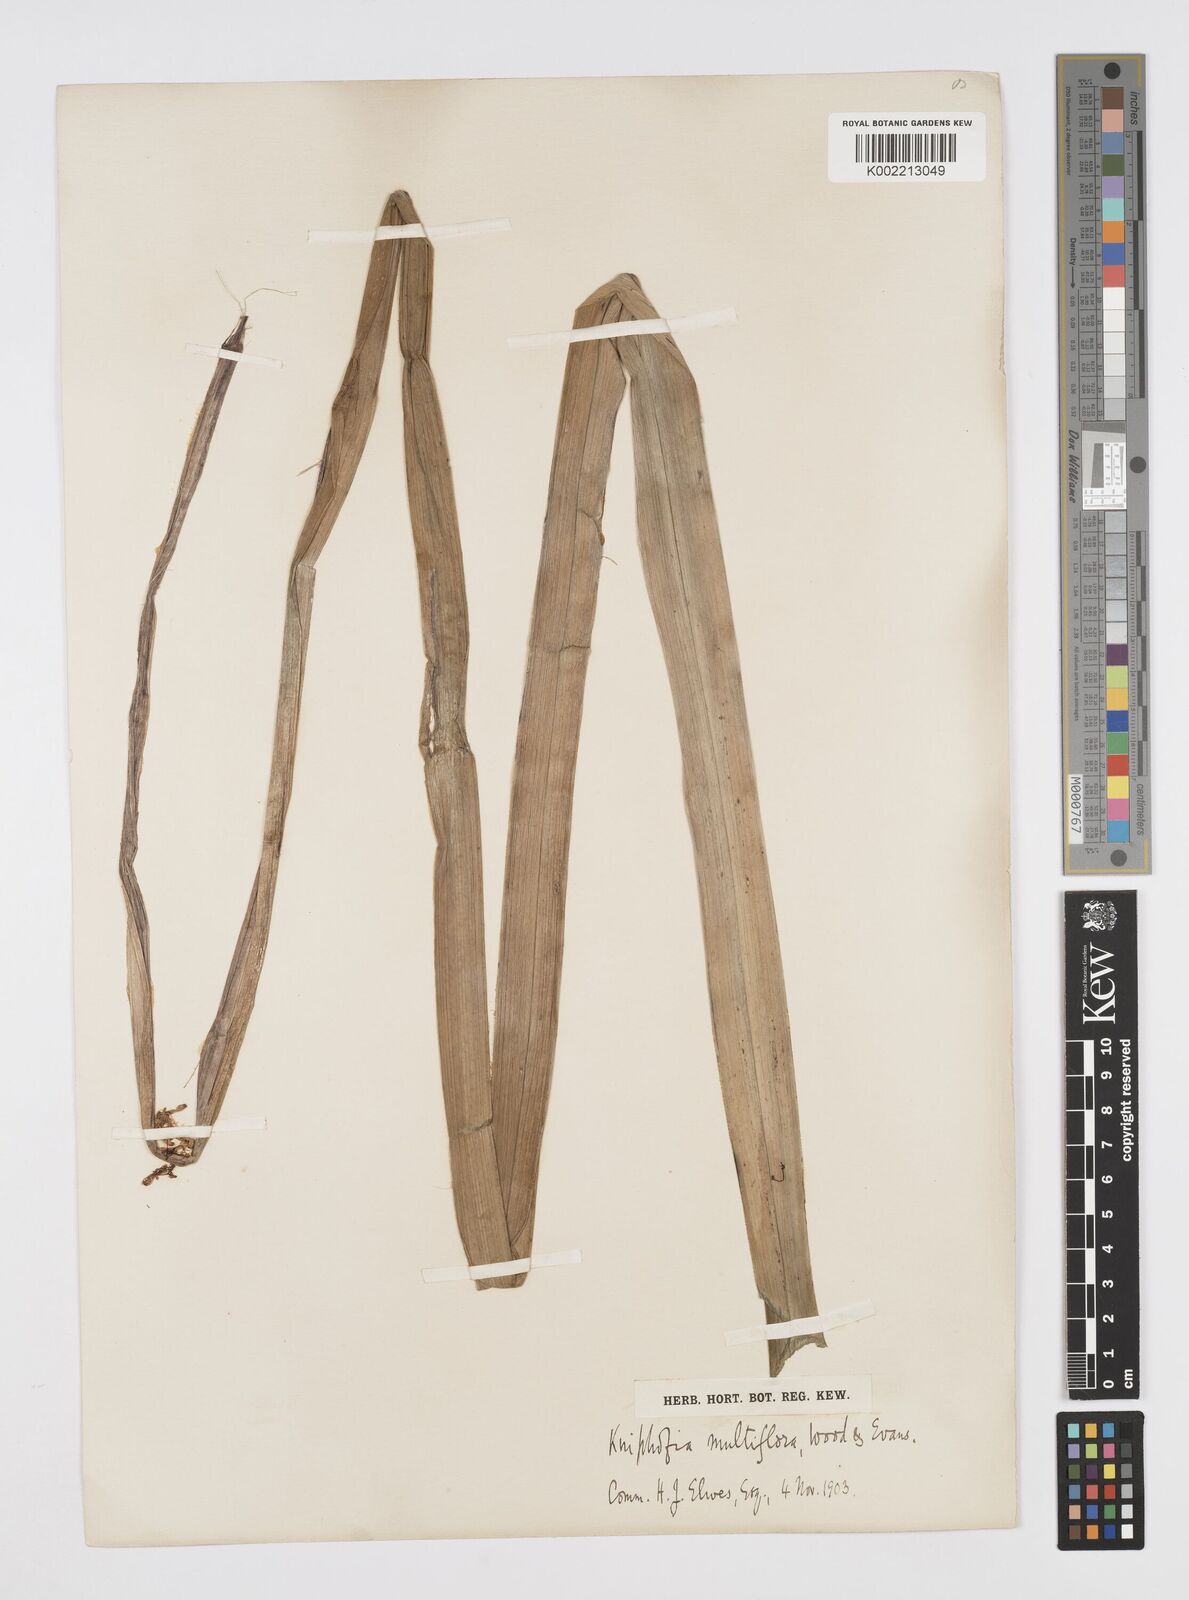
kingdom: Plantae
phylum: Tracheophyta
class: Liliopsida
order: Asparagales
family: Asphodelaceae
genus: Kniphofia
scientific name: Kniphofia multiflora
